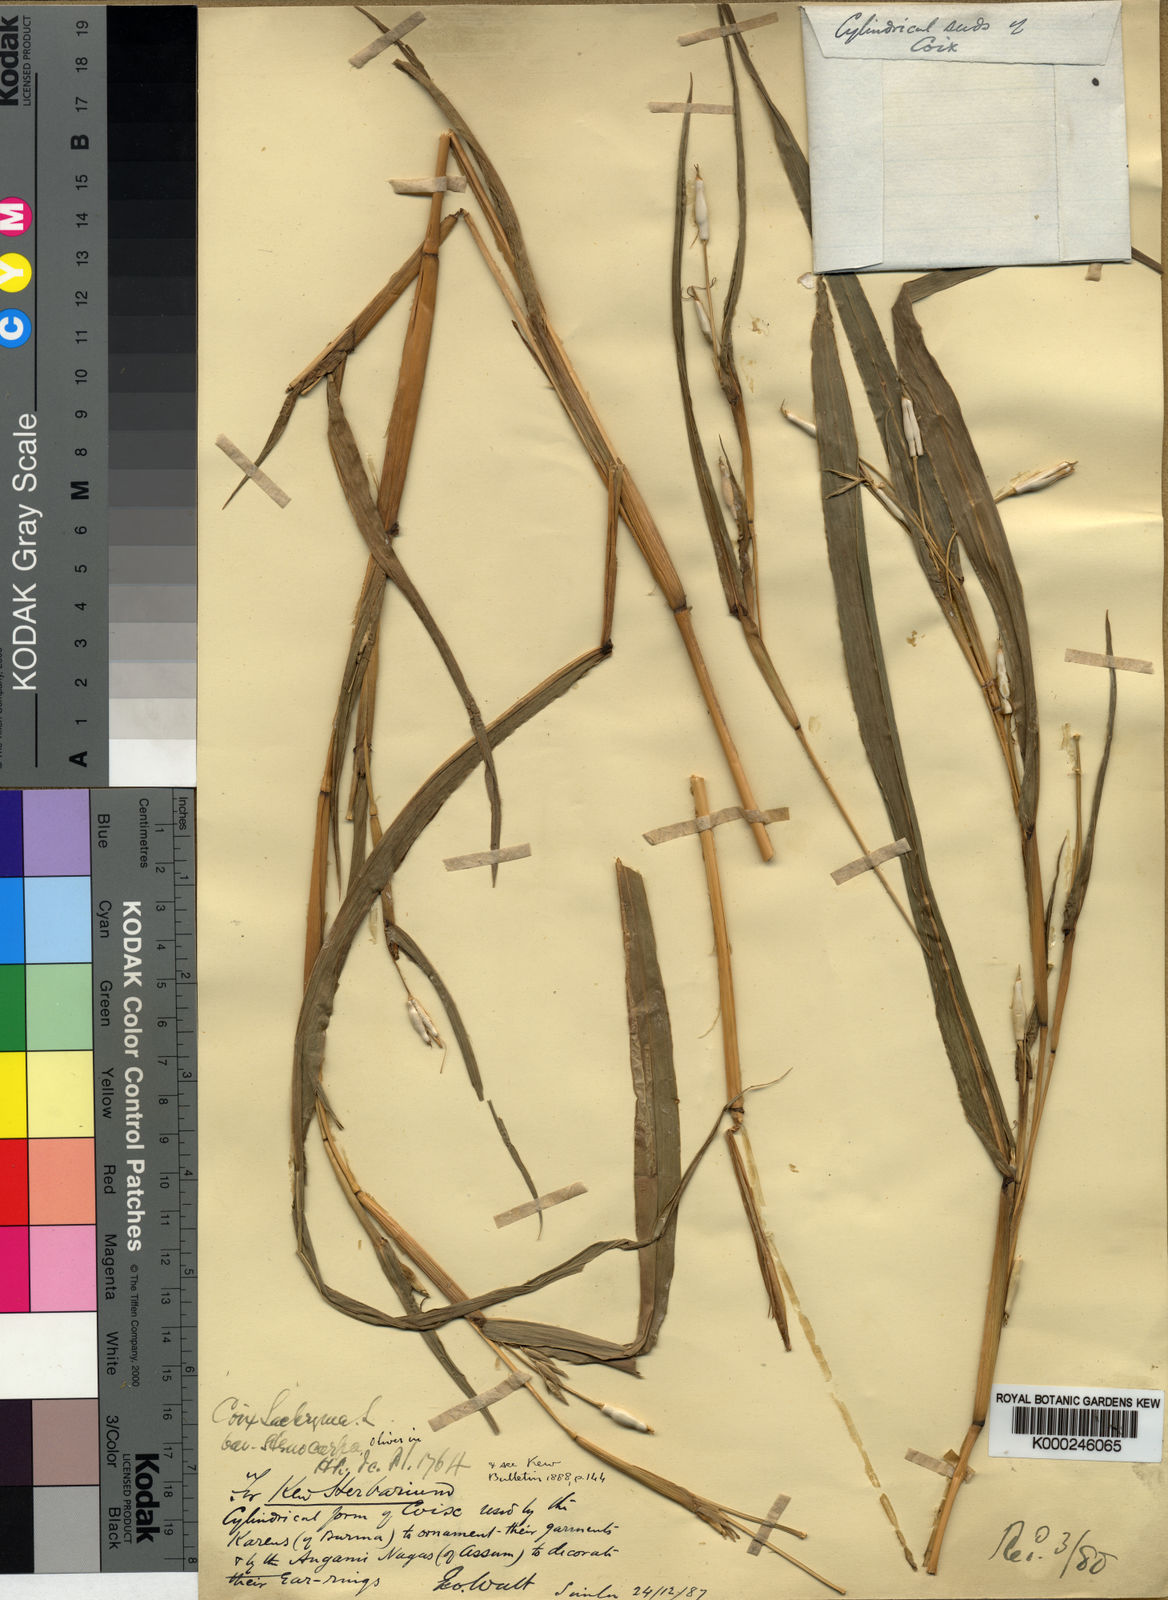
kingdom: Plantae
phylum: Tracheophyta
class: Liliopsida
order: Poales
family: Poaceae
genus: Coix
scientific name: Coix lacryma-jobi
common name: Job's tears
